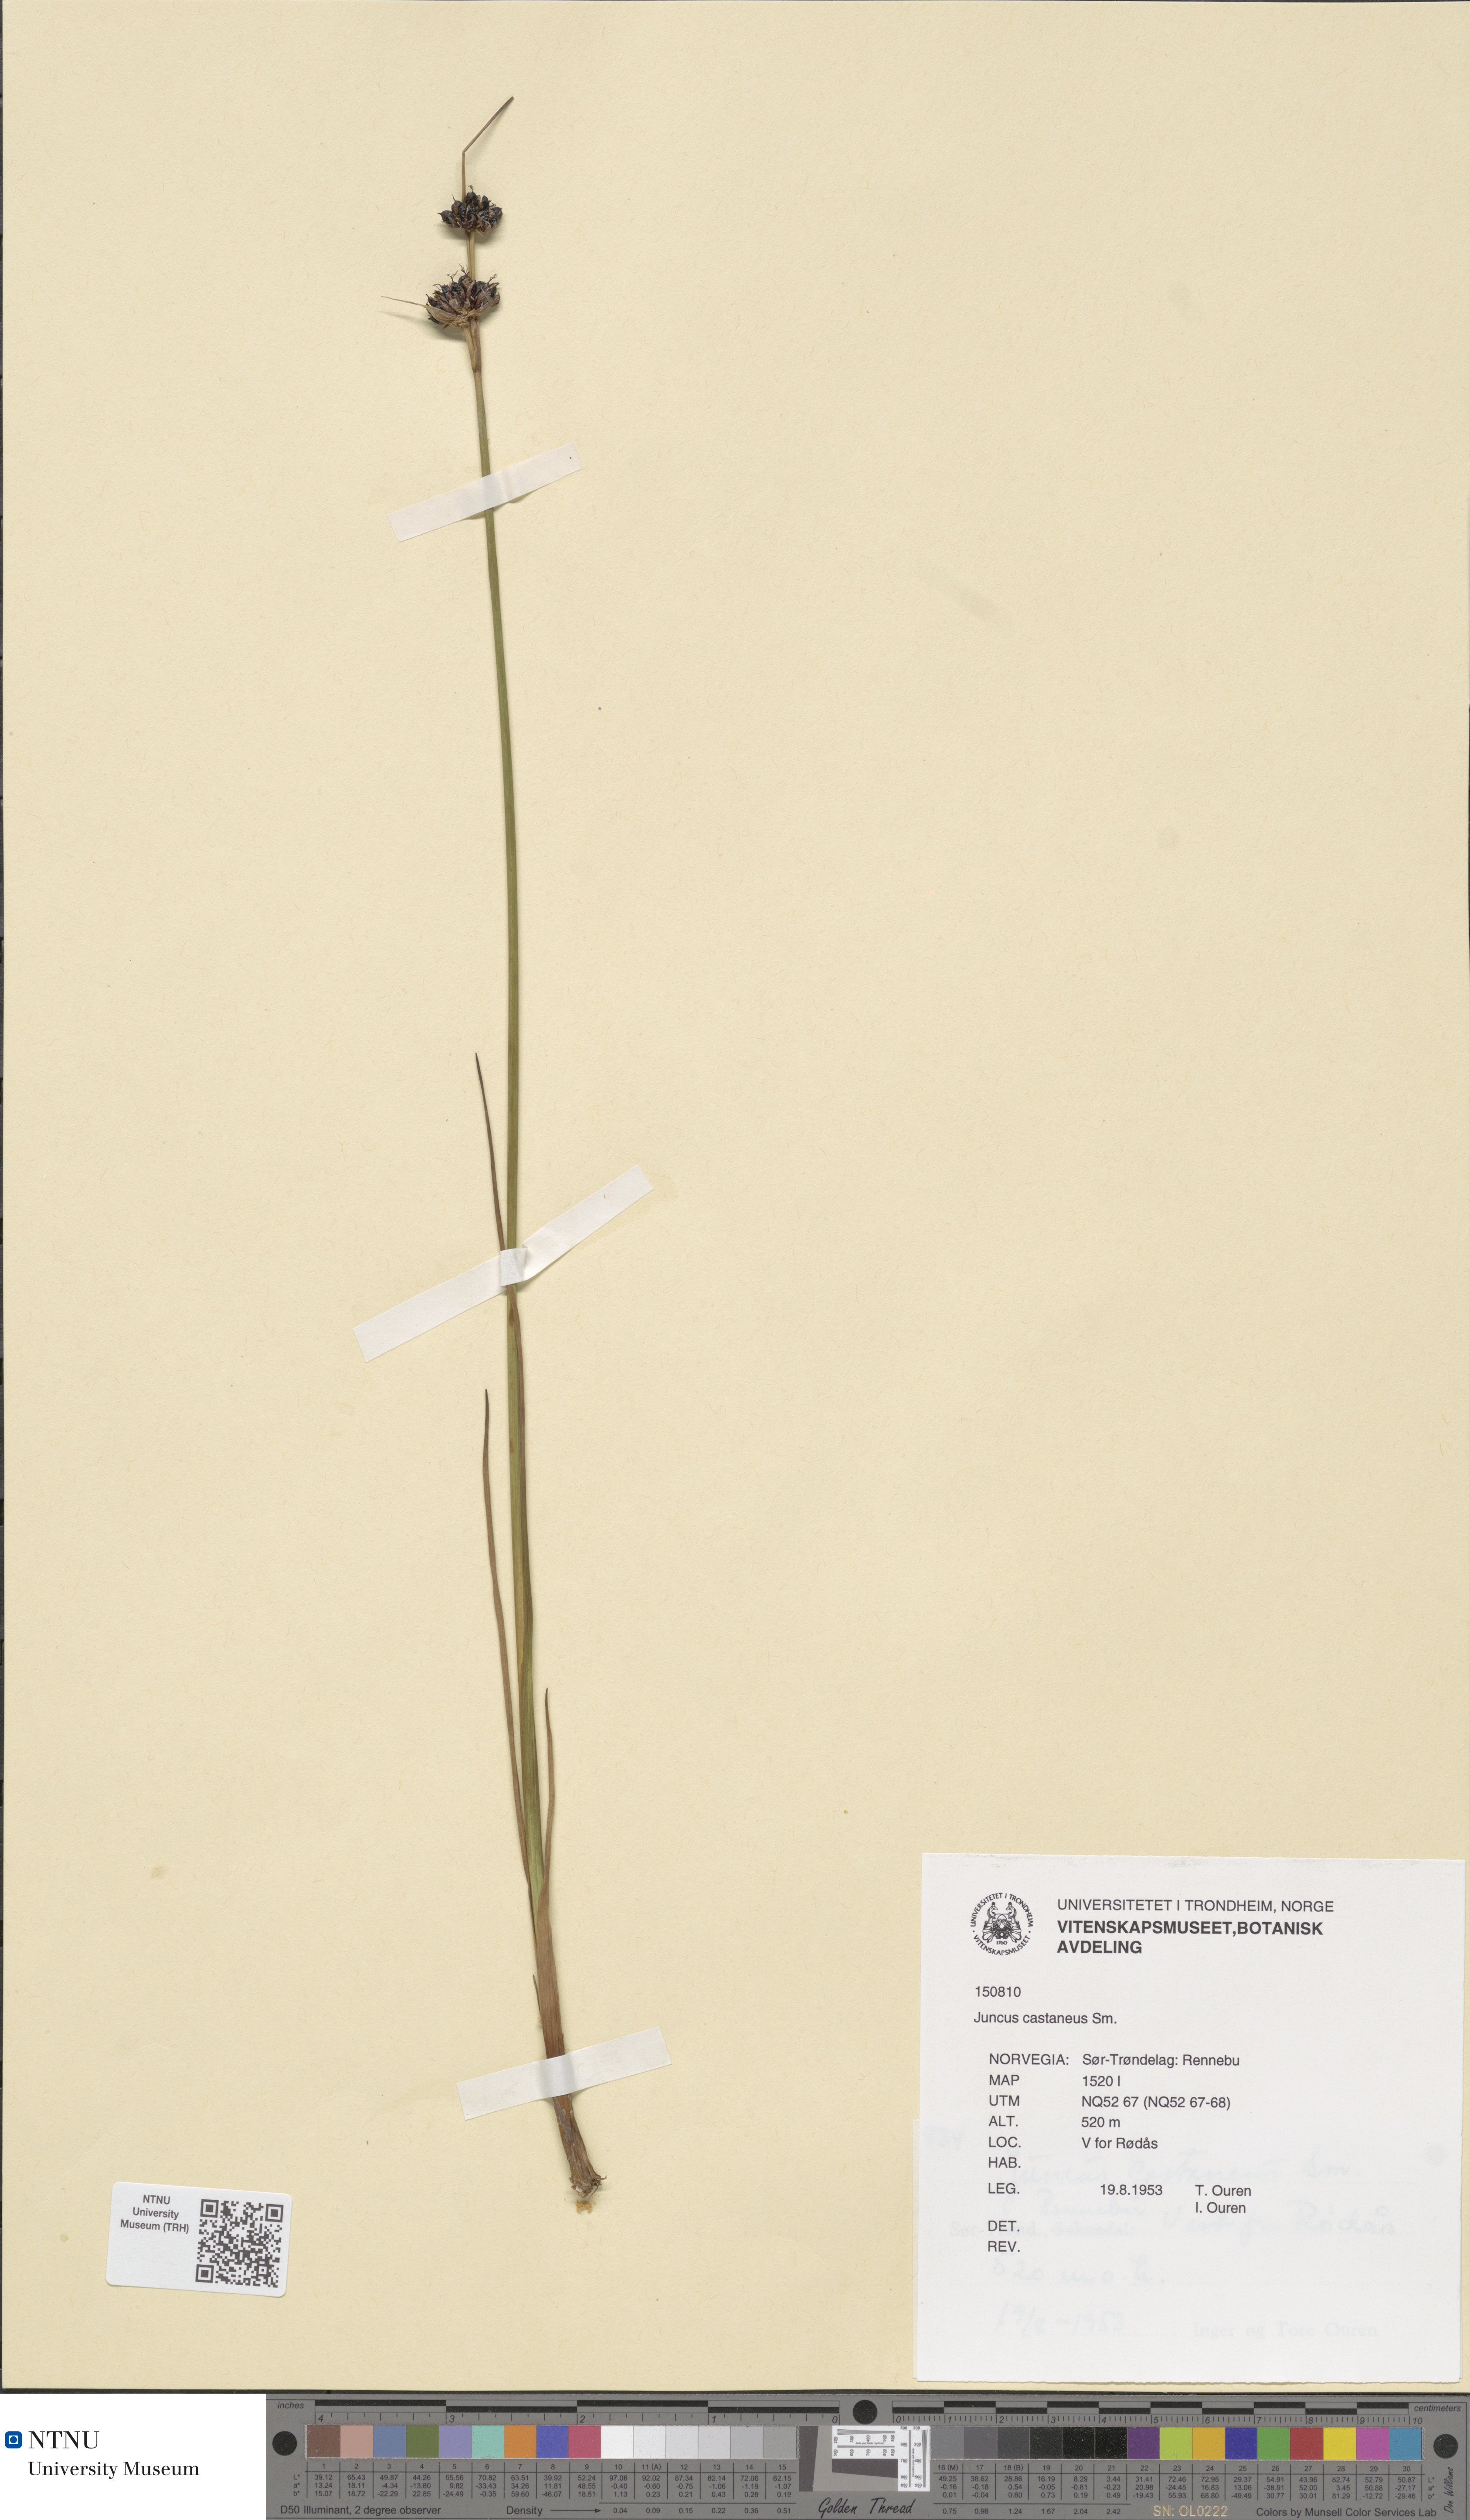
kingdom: Plantae
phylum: Tracheophyta
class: Liliopsida
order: Poales
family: Juncaceae
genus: Juncus
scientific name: Juncus castaneus
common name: Chestnut rush
